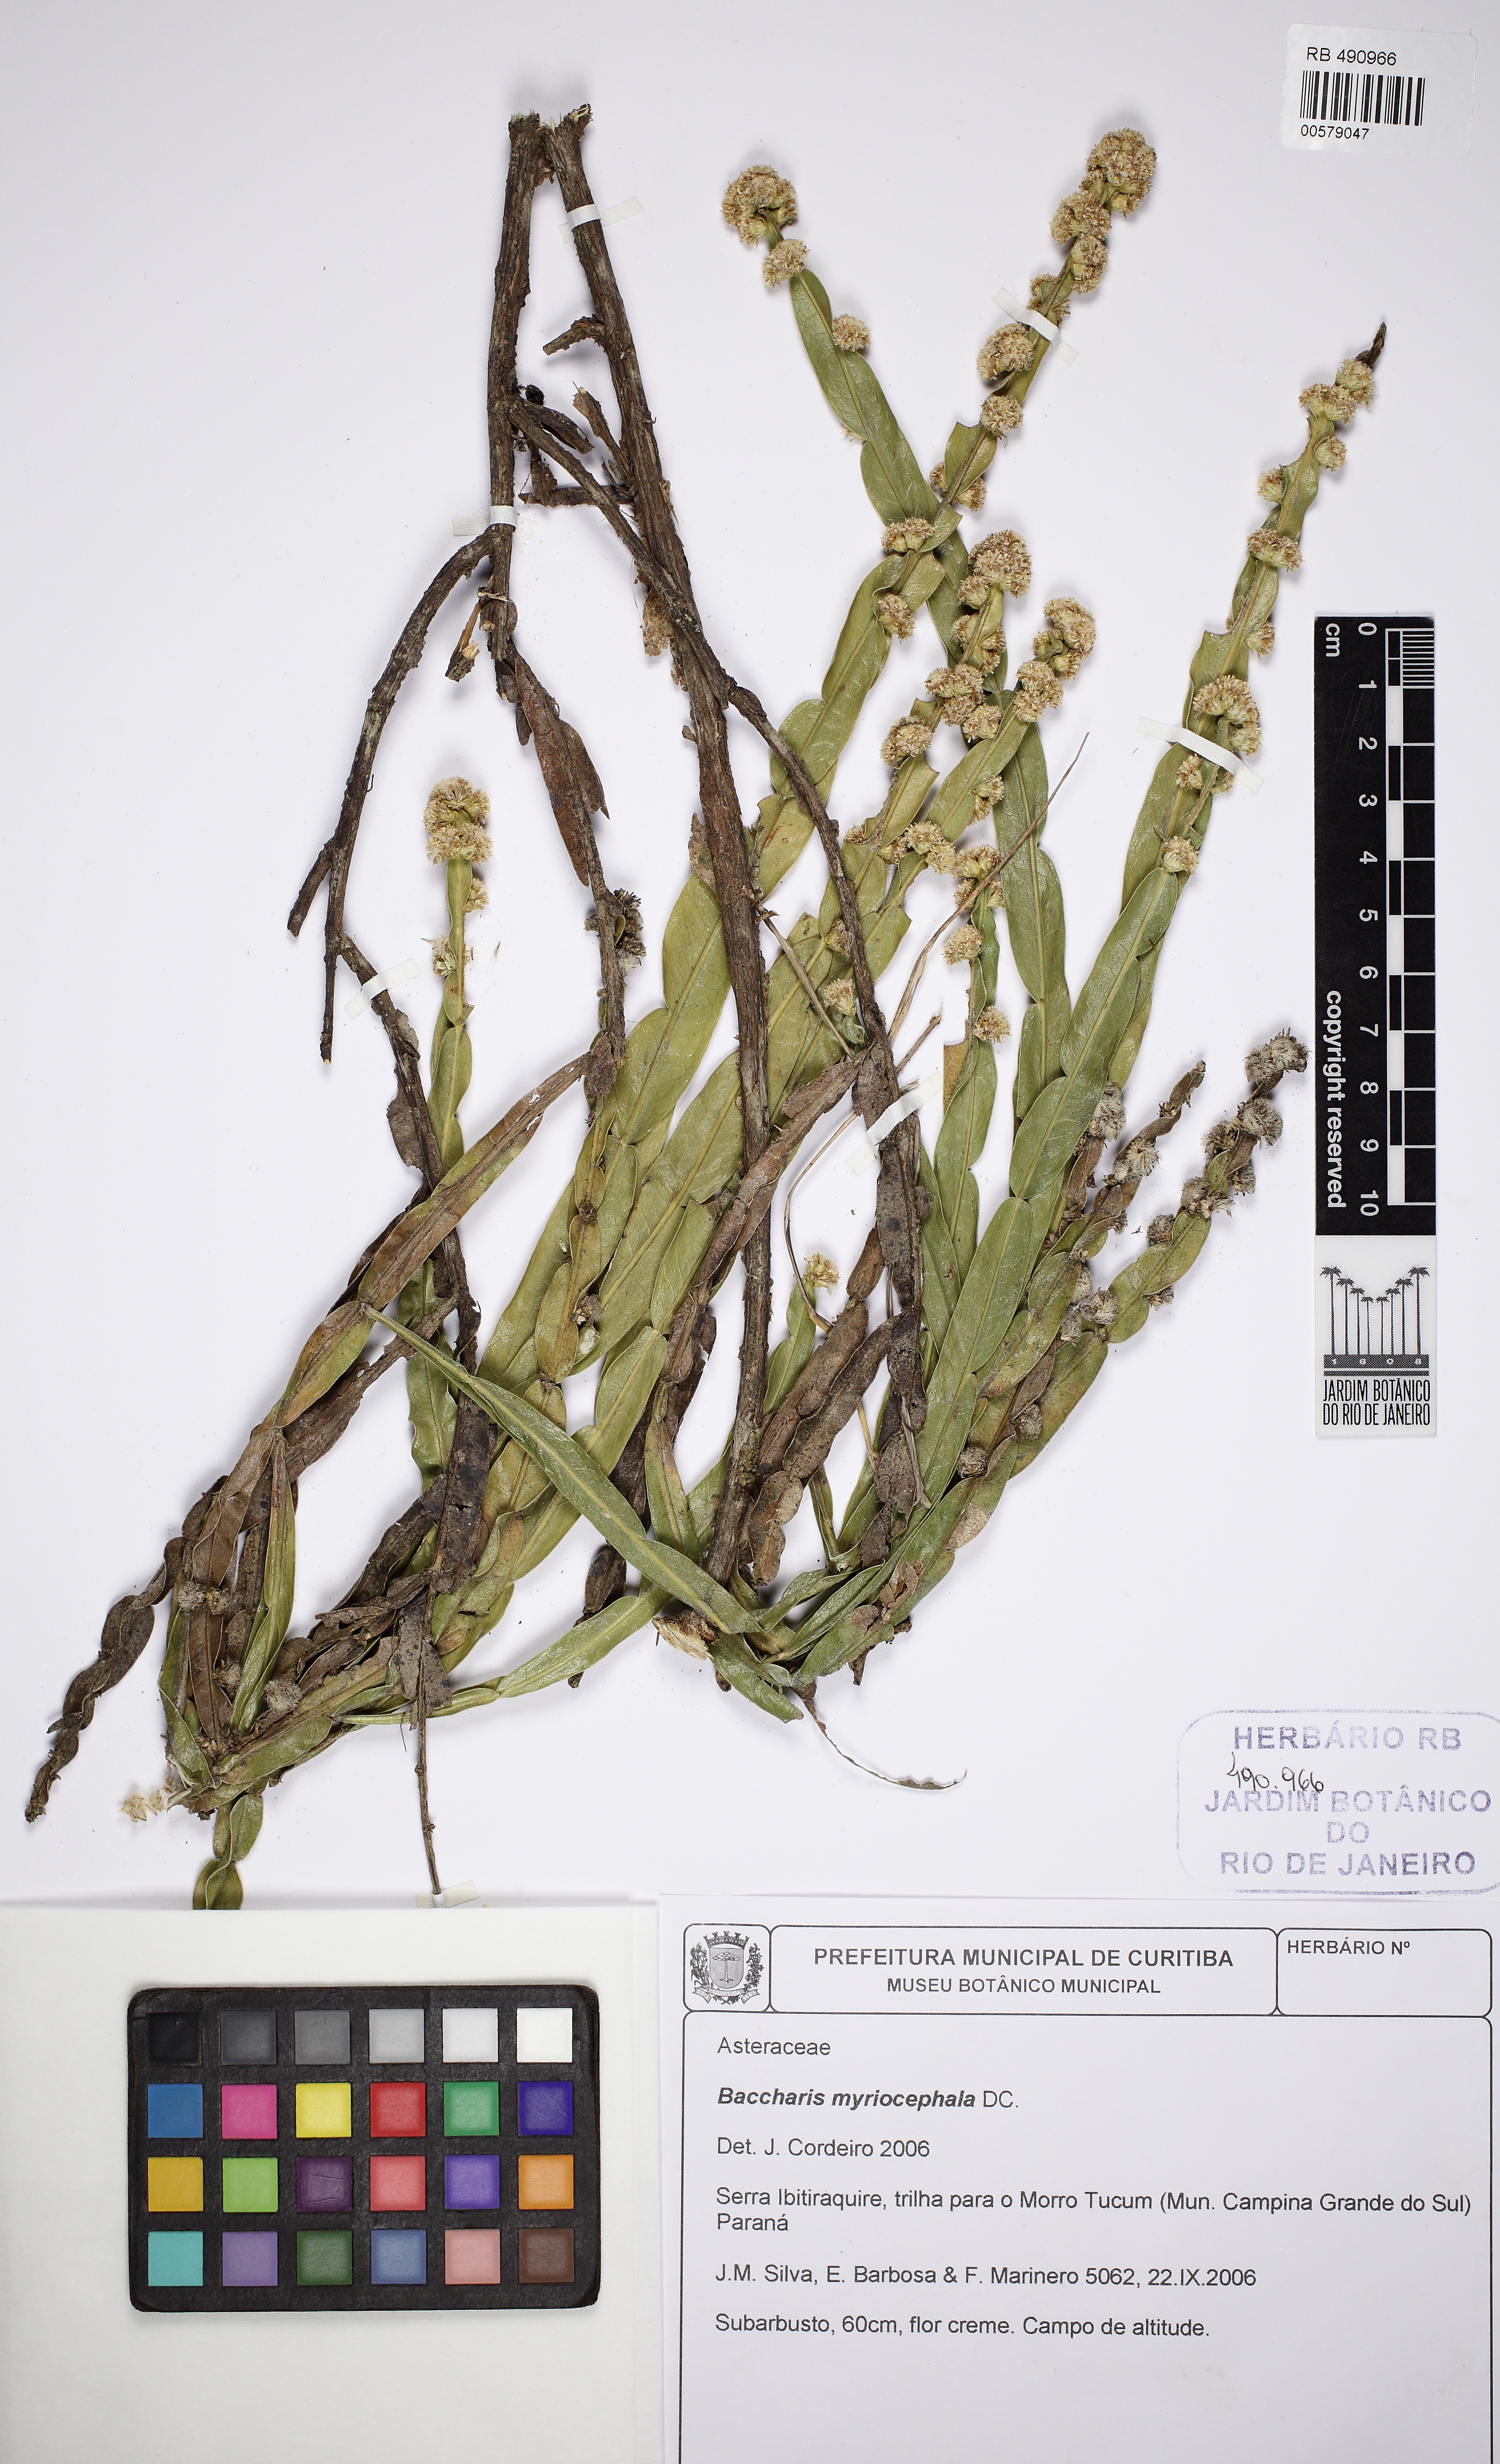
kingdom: Plantae
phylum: Tracheophyta
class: Magnoliopsida
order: Asterales
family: Asteraceae
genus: Baccharis
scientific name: Baccharis myriocephala
